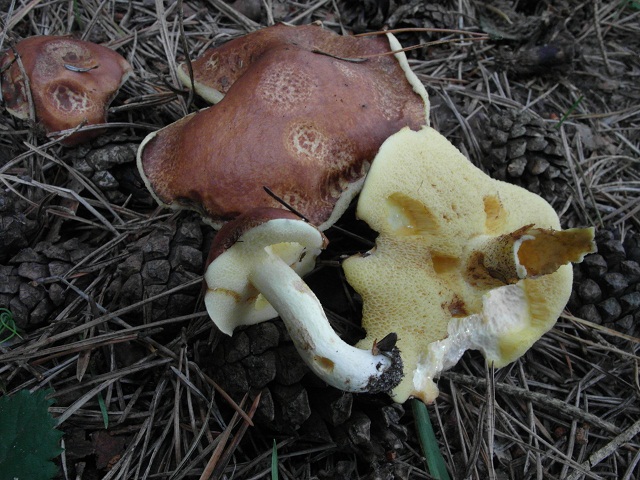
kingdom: Fungi
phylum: Basidiomycota
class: Agaricomycetes
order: Boletales
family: Suillaceae
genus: Suillus
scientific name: Suillus granulatus
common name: kornet slimrørhat
